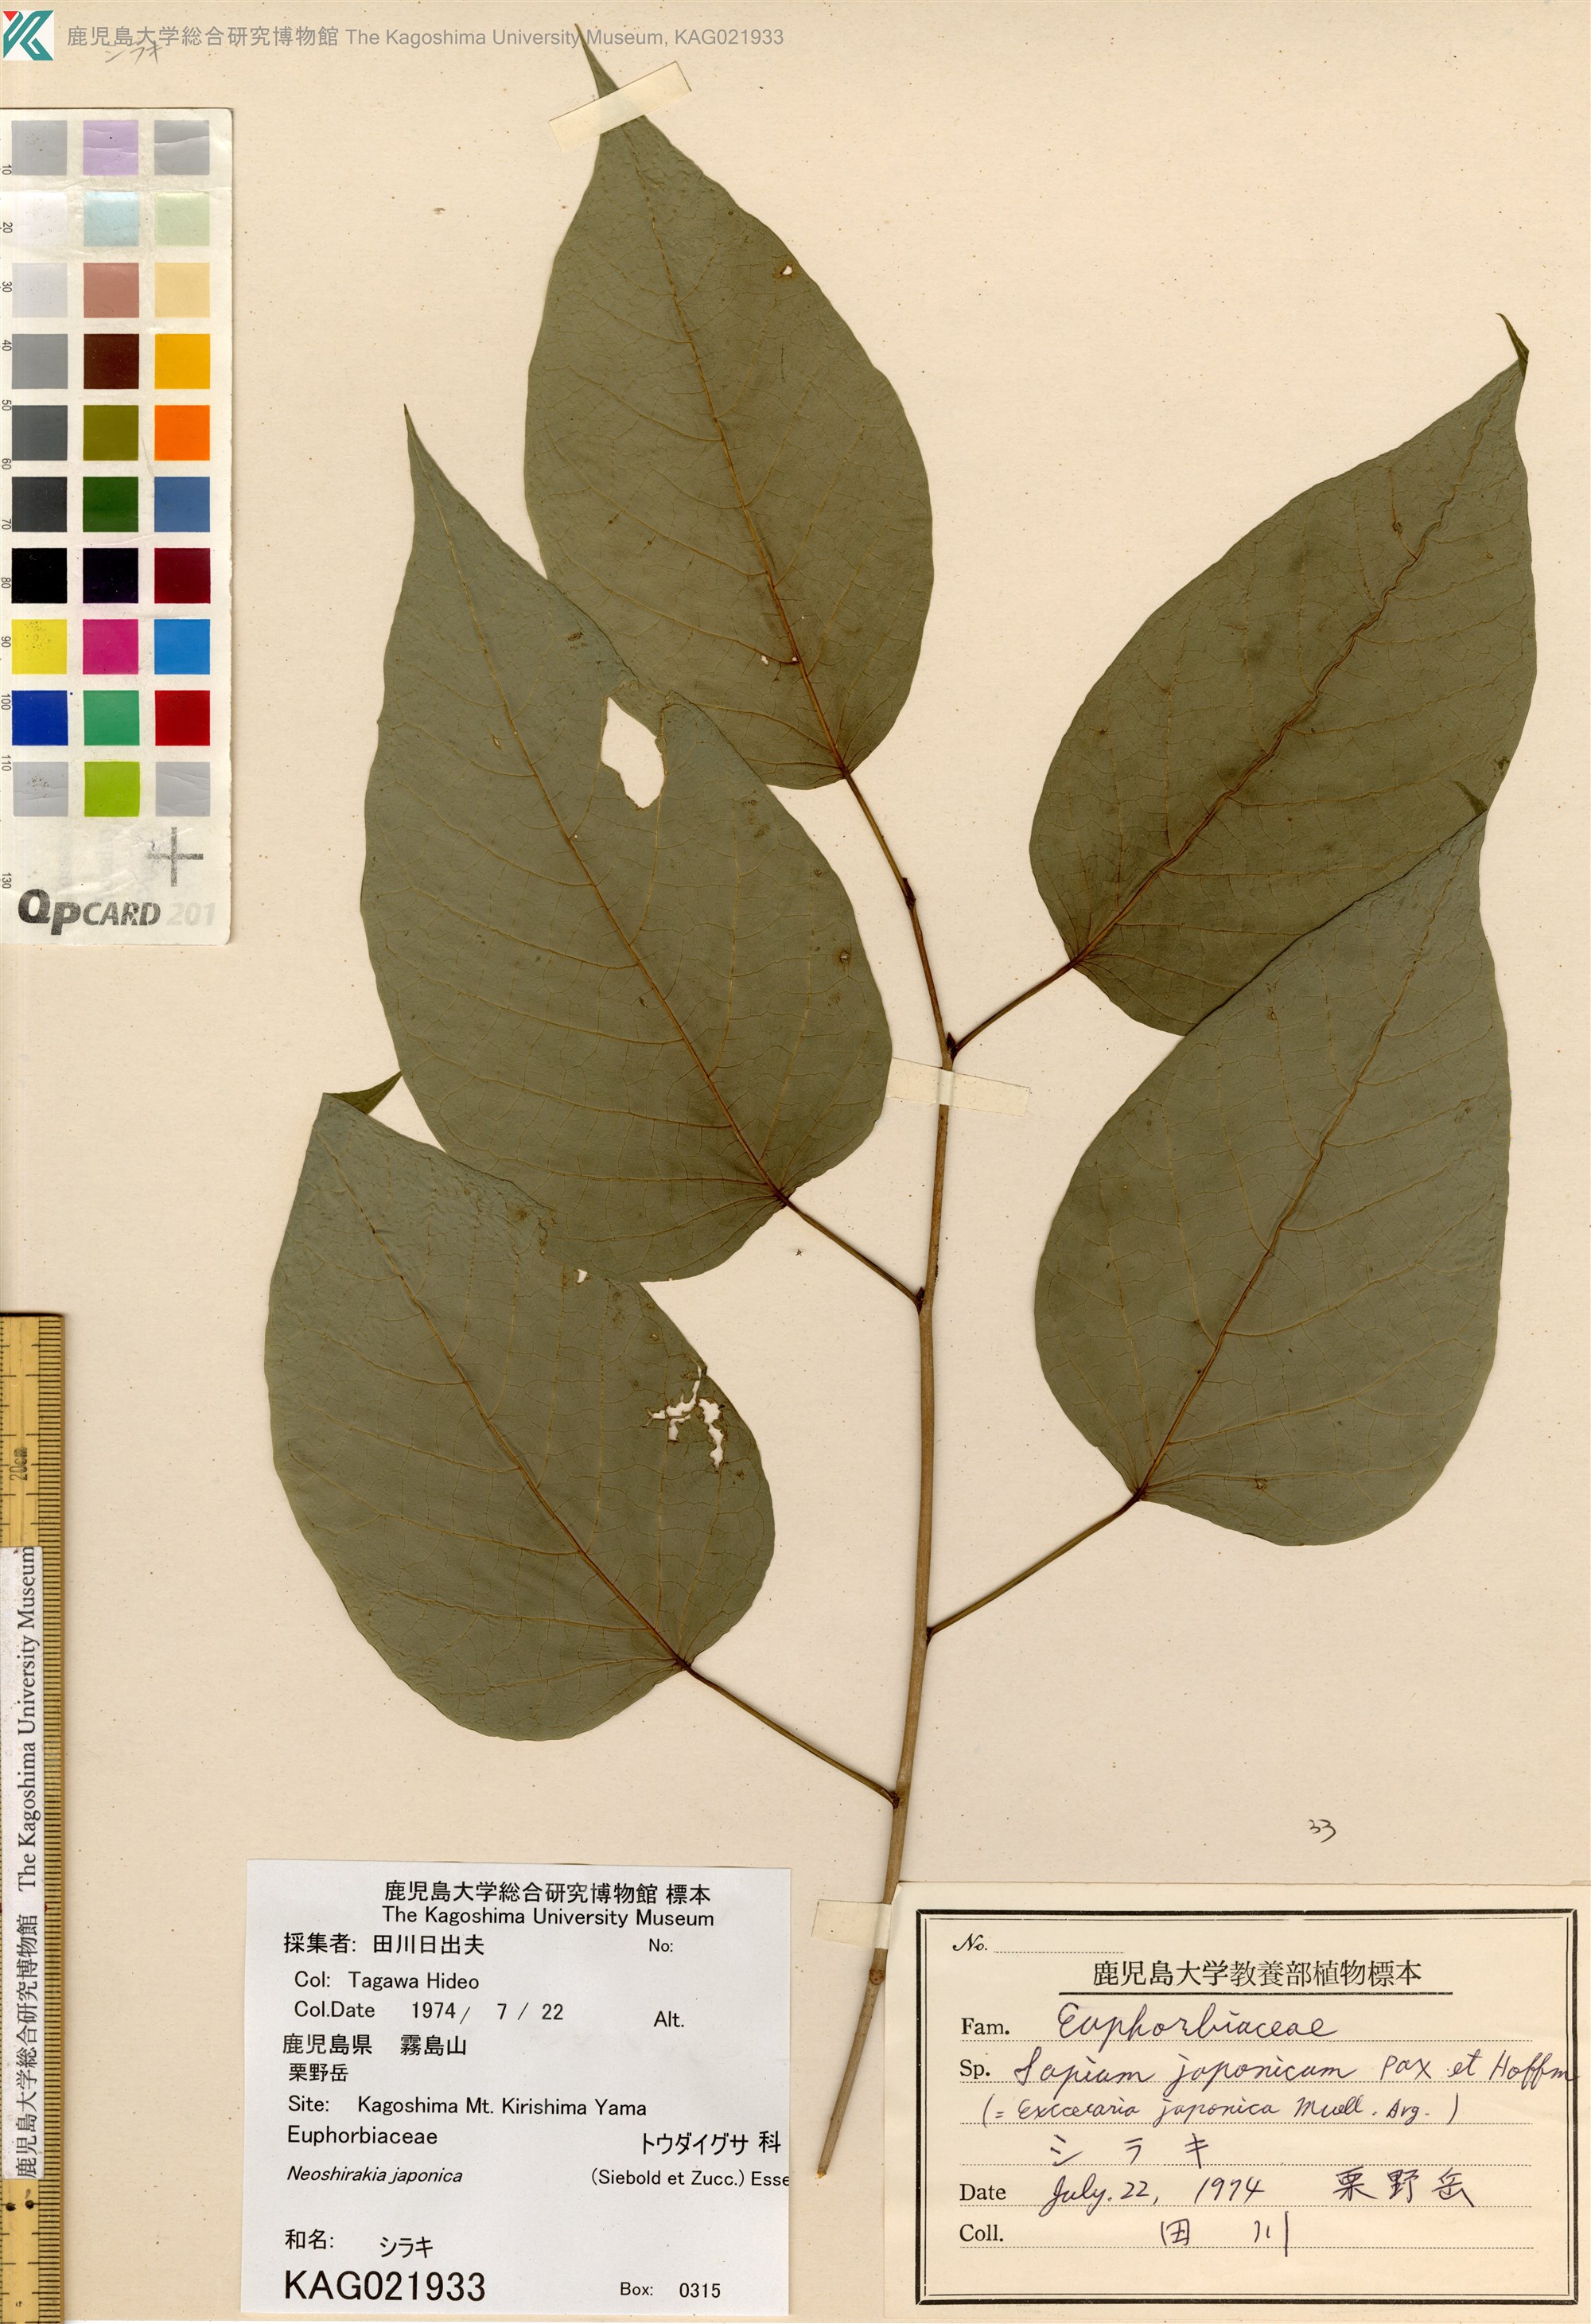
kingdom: Plantae
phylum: Tracheophyta
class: Magnoliopsida
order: Malpighiales
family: Euphorbiaceae
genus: Neoshirakia
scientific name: Neoshirakia japonica
